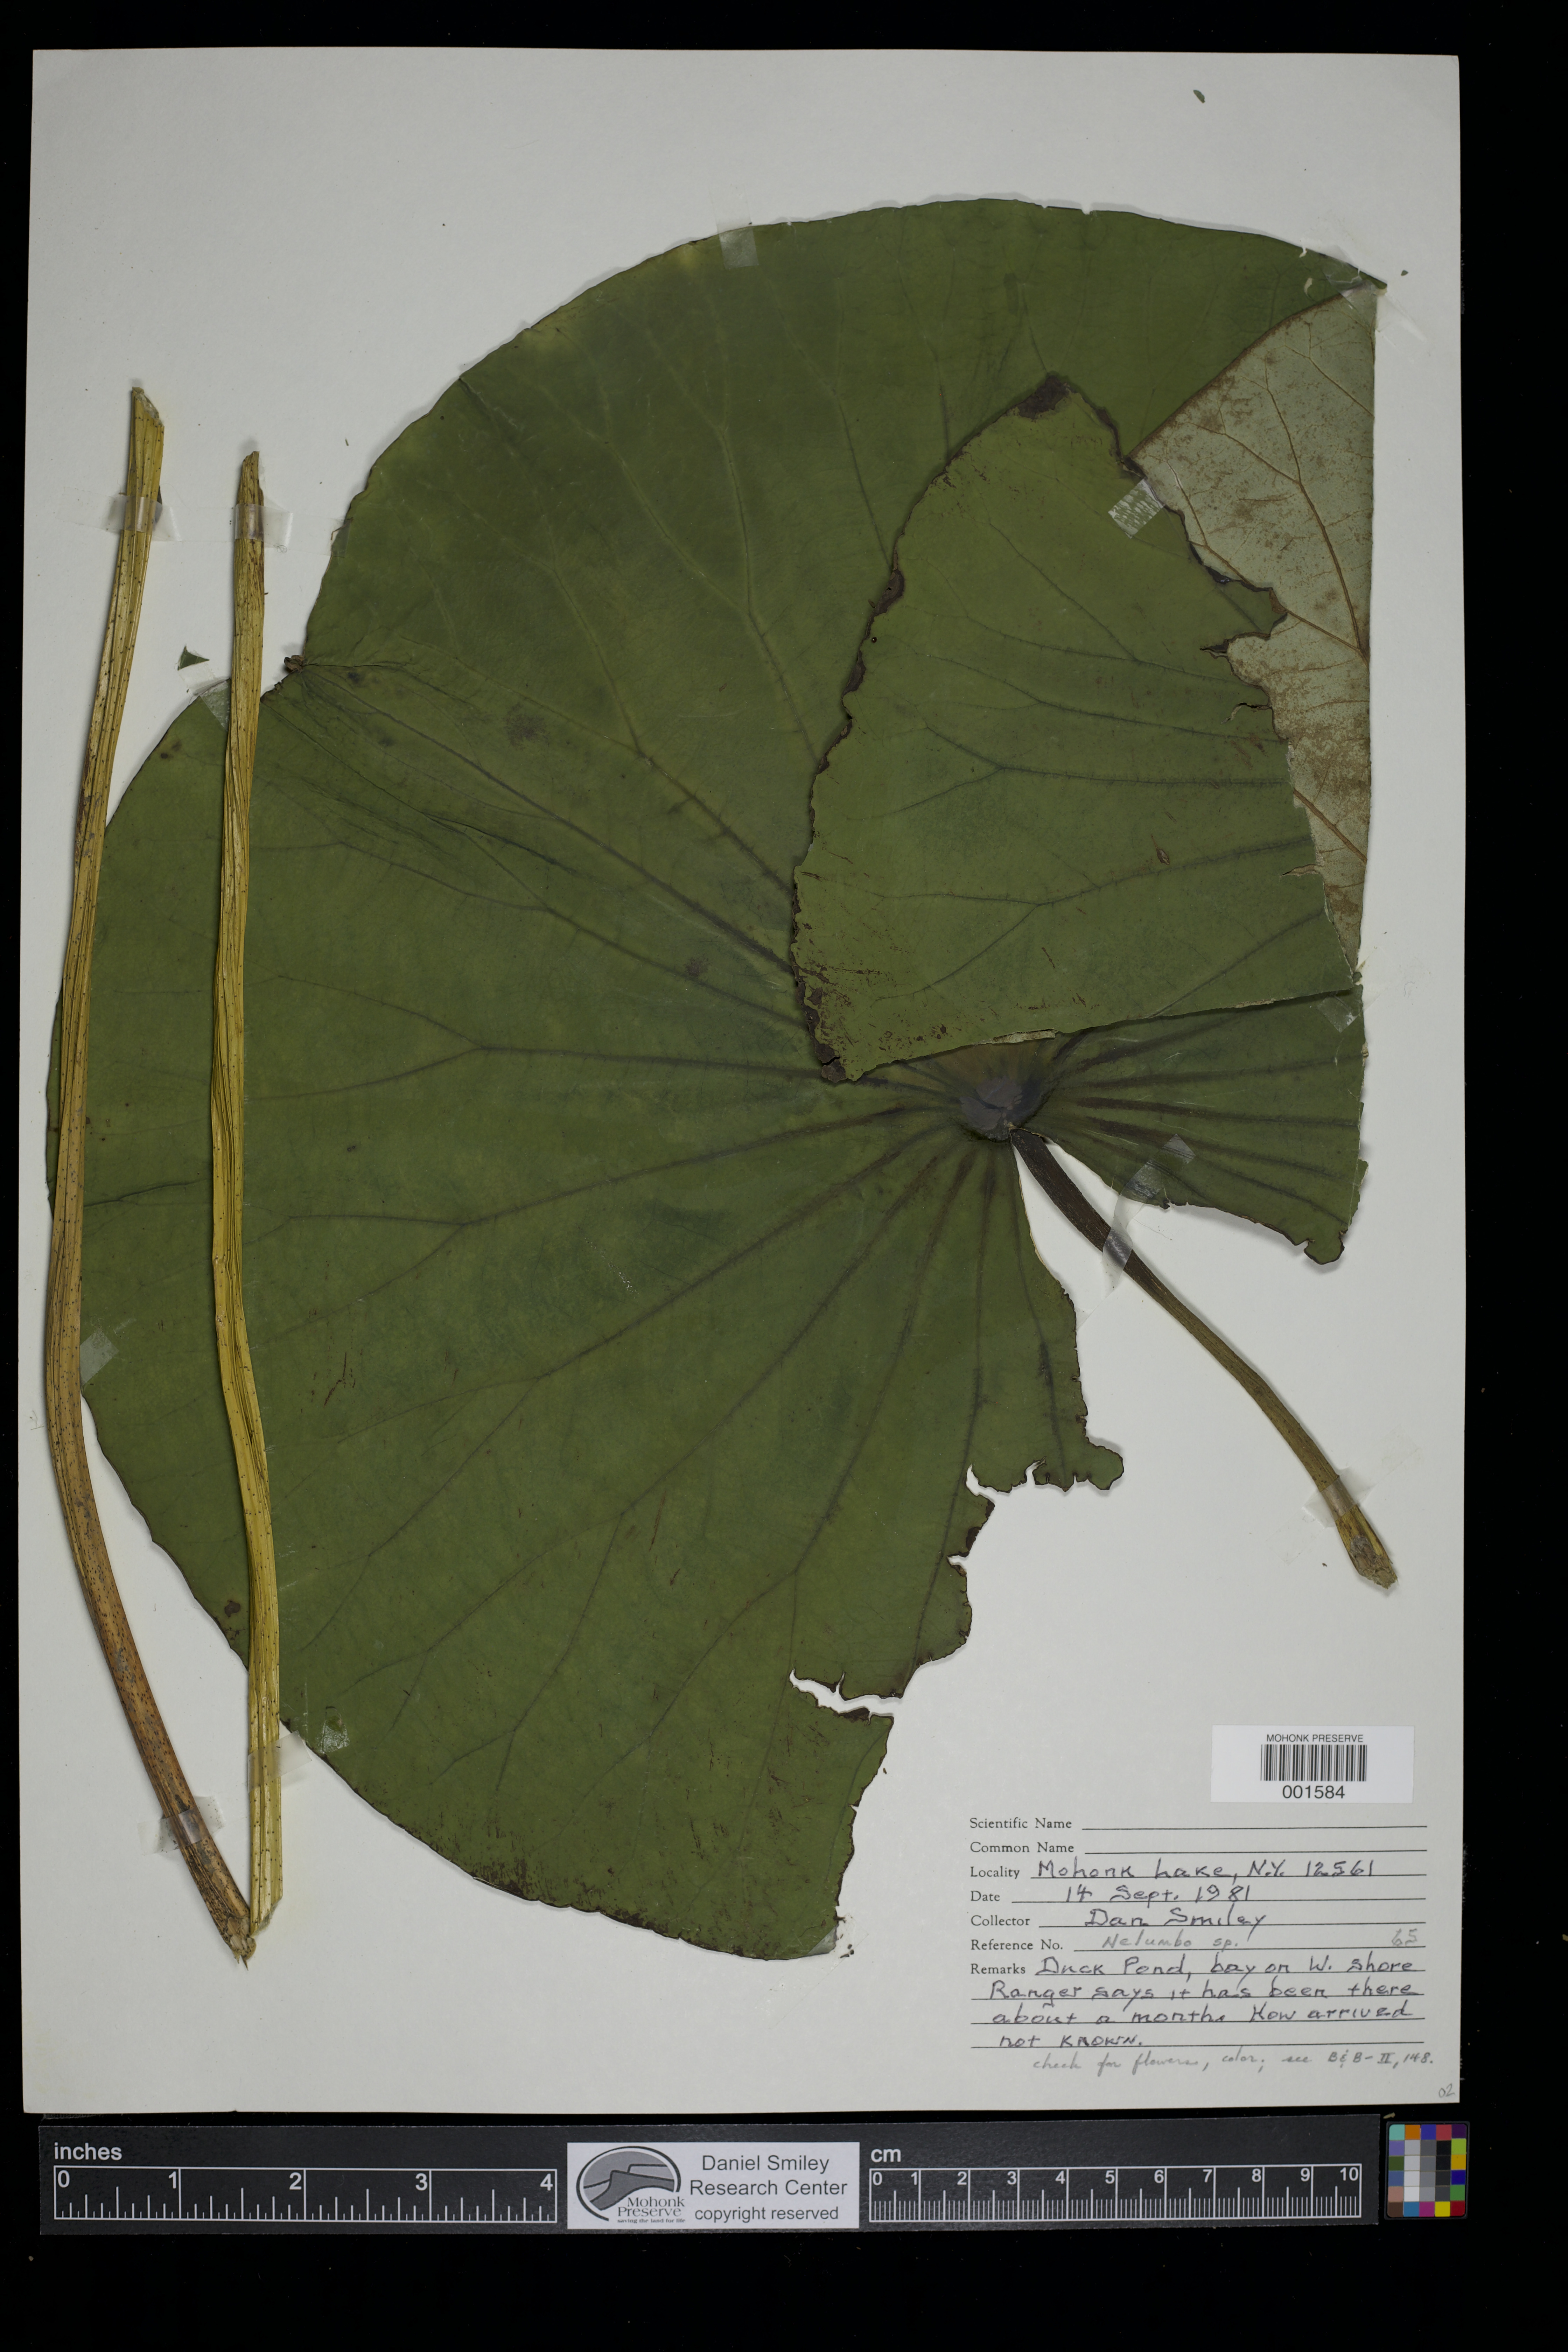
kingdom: Plantae
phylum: Tracheophyta
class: Magnoliopsida
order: Proteales
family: Nelumbonaceae
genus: Nelumbo
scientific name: Nelumbo
